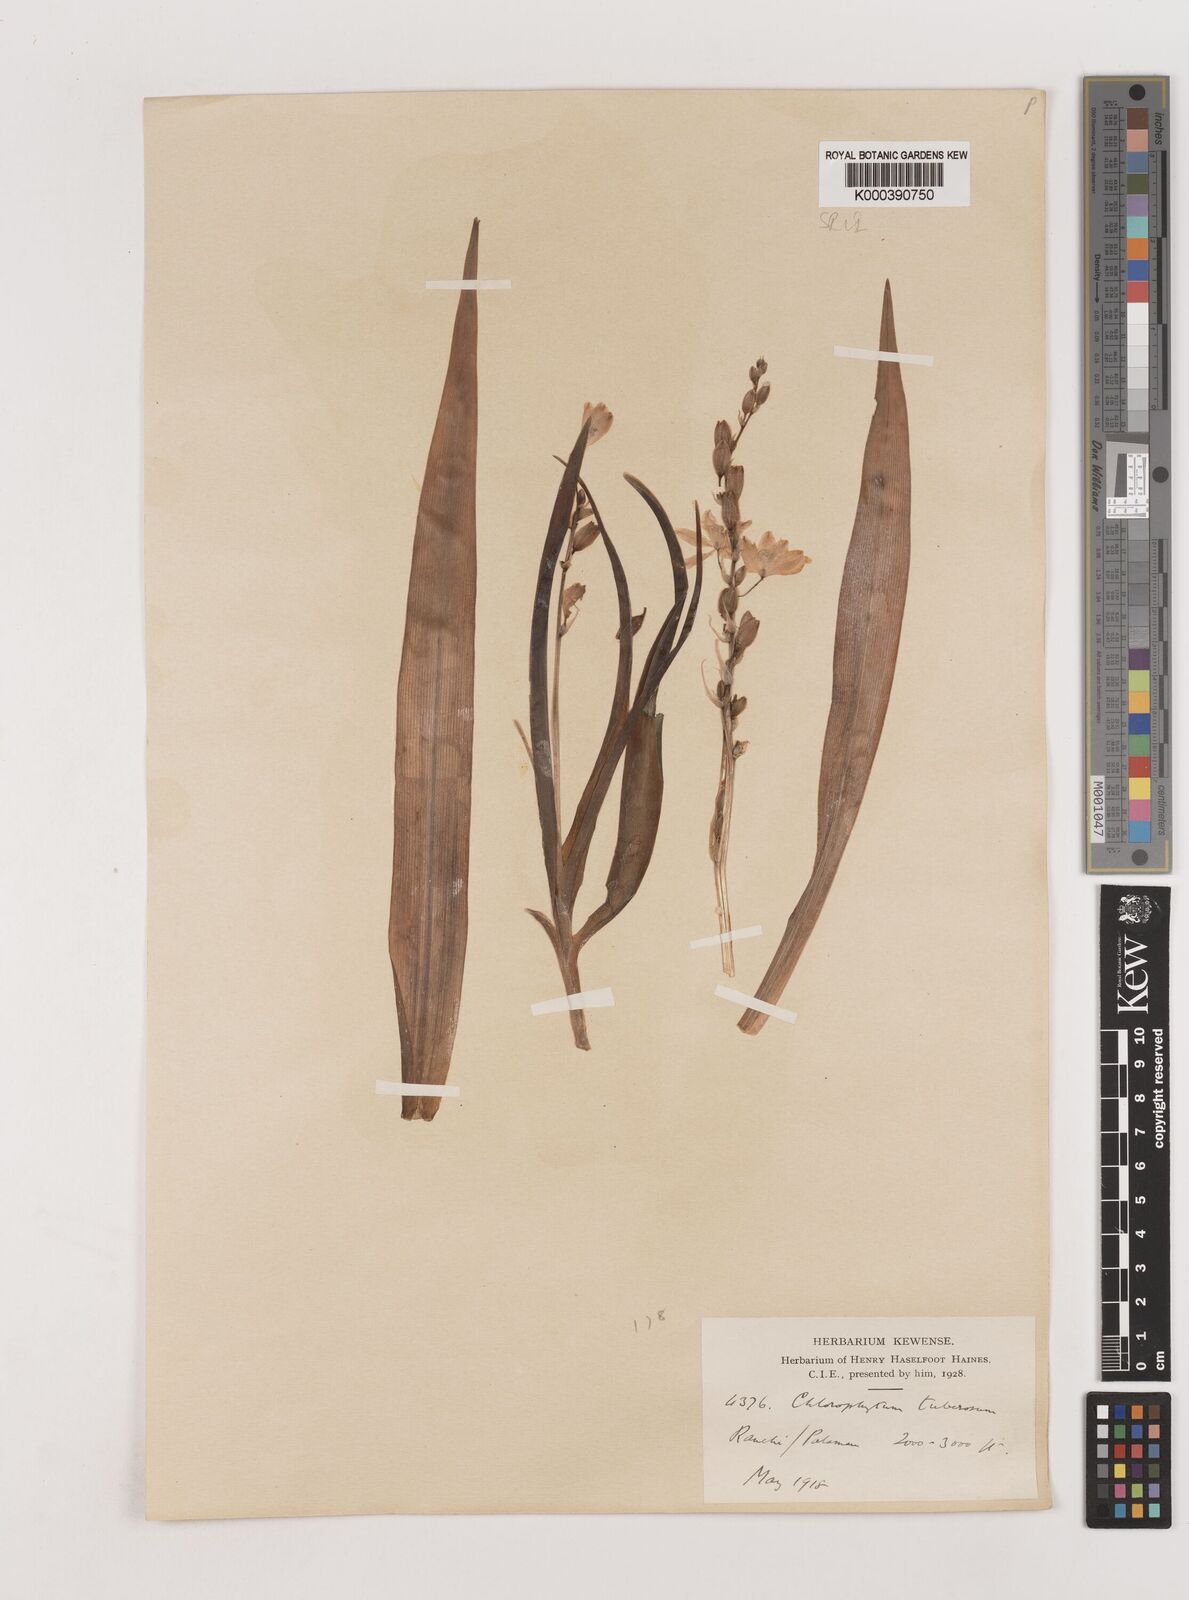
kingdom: Plantae
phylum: Tracheophyta
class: Liliopsida
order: Asparagales
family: Asparagaceae
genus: Chlorophytum
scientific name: Chlorophytum tuberosum
